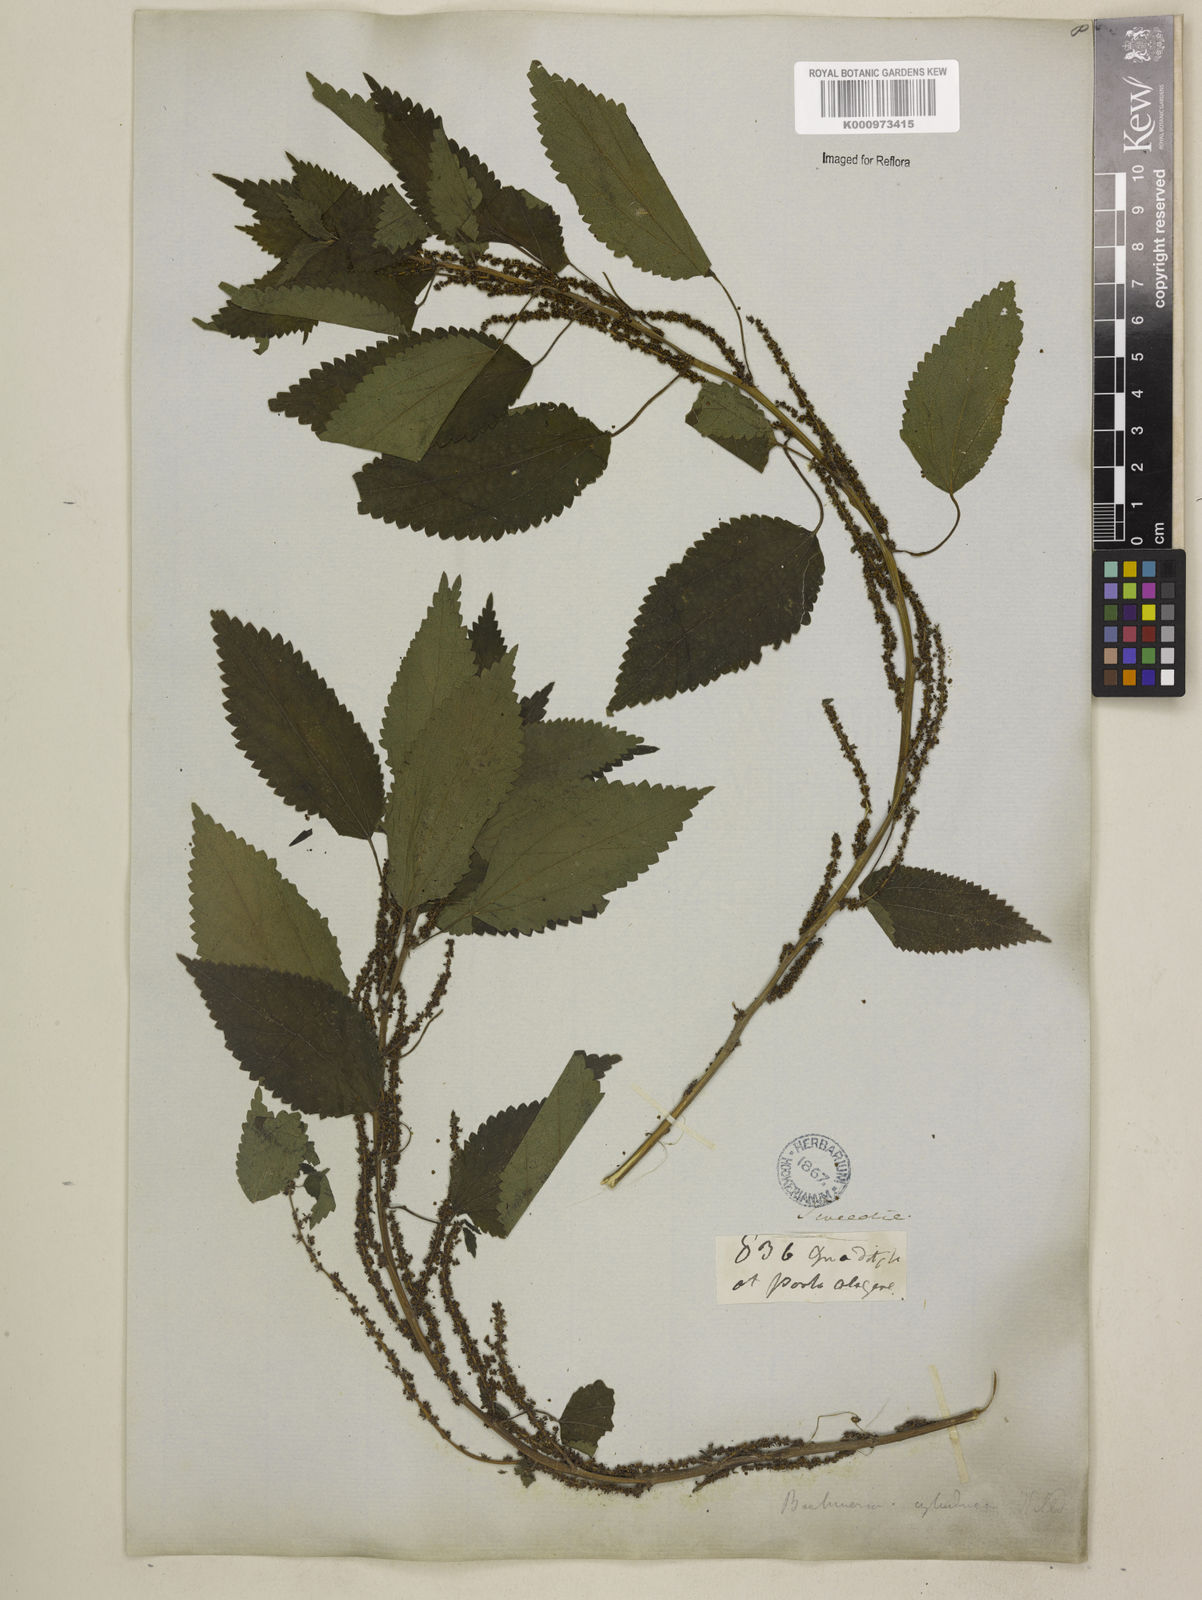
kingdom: Plantae
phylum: Tracheophyta
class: Magnoliopsida
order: Rosales
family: Urticaceae
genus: Boehmeria
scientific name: Boehmeria cylindrica
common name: Bog-hemp
